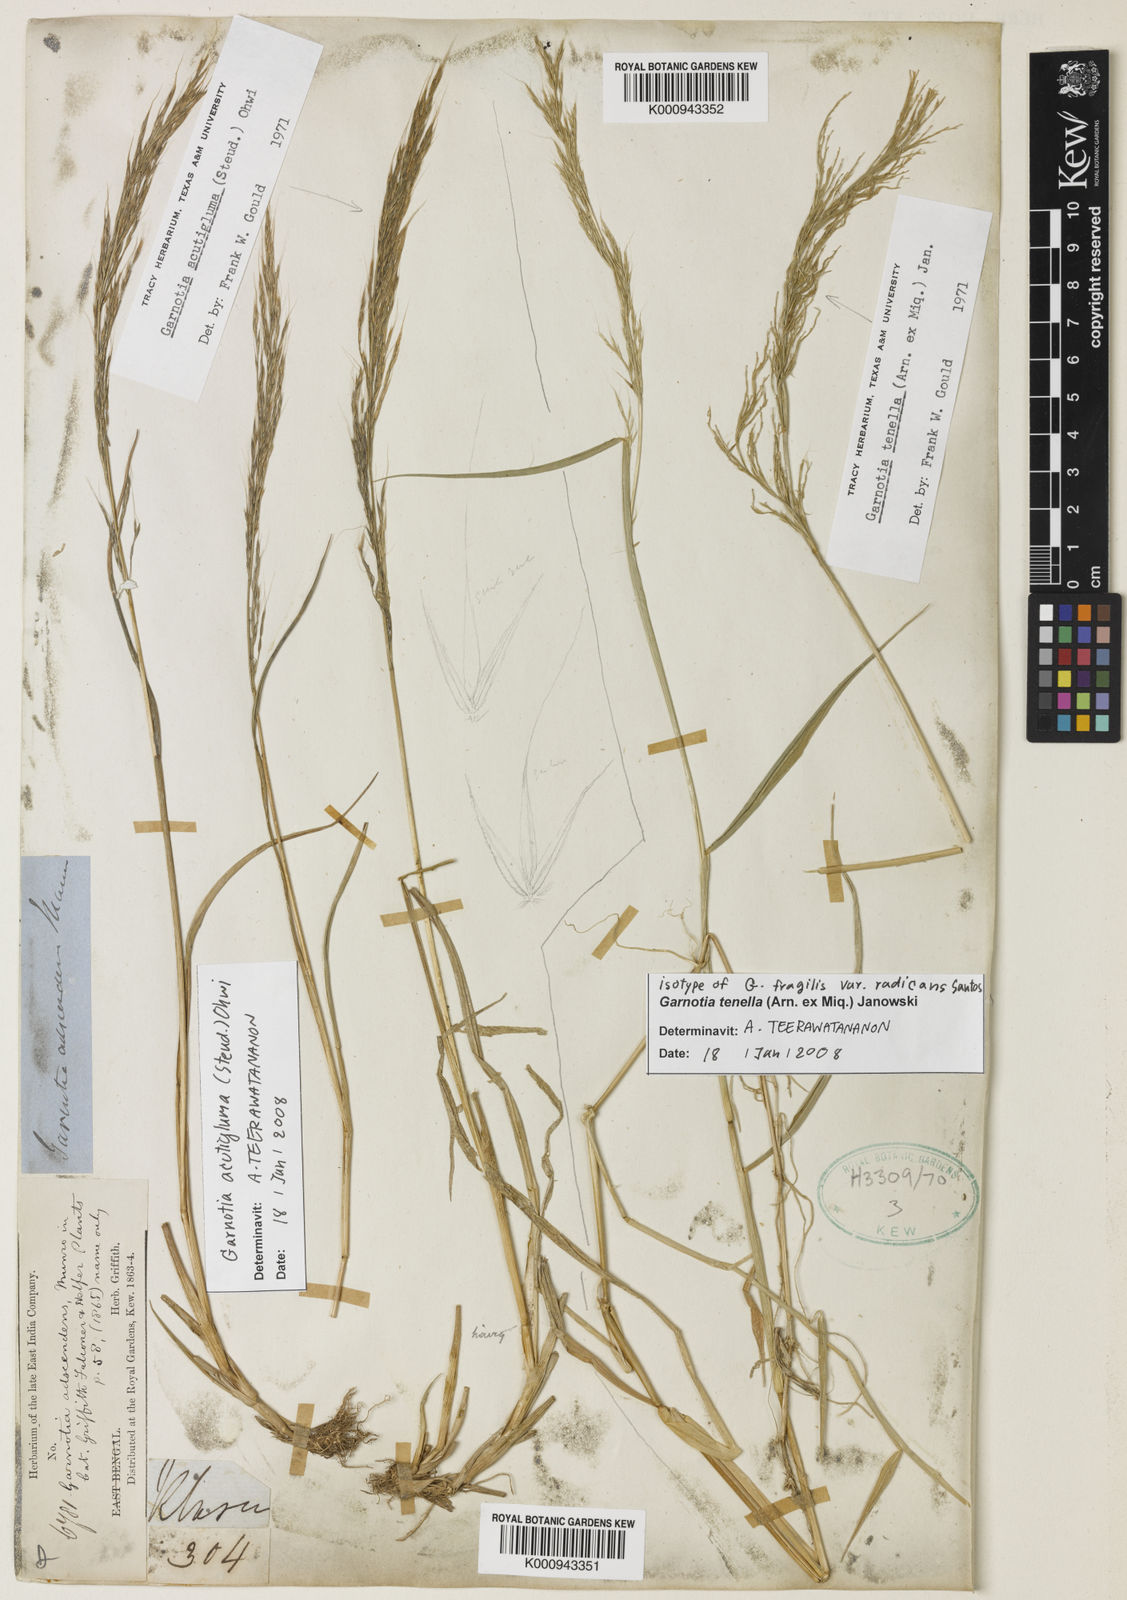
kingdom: Plantae
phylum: Tracheophyta
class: Liliopsida
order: Poales
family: Poaceae
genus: Garnotia
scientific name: Garnotia stricta
